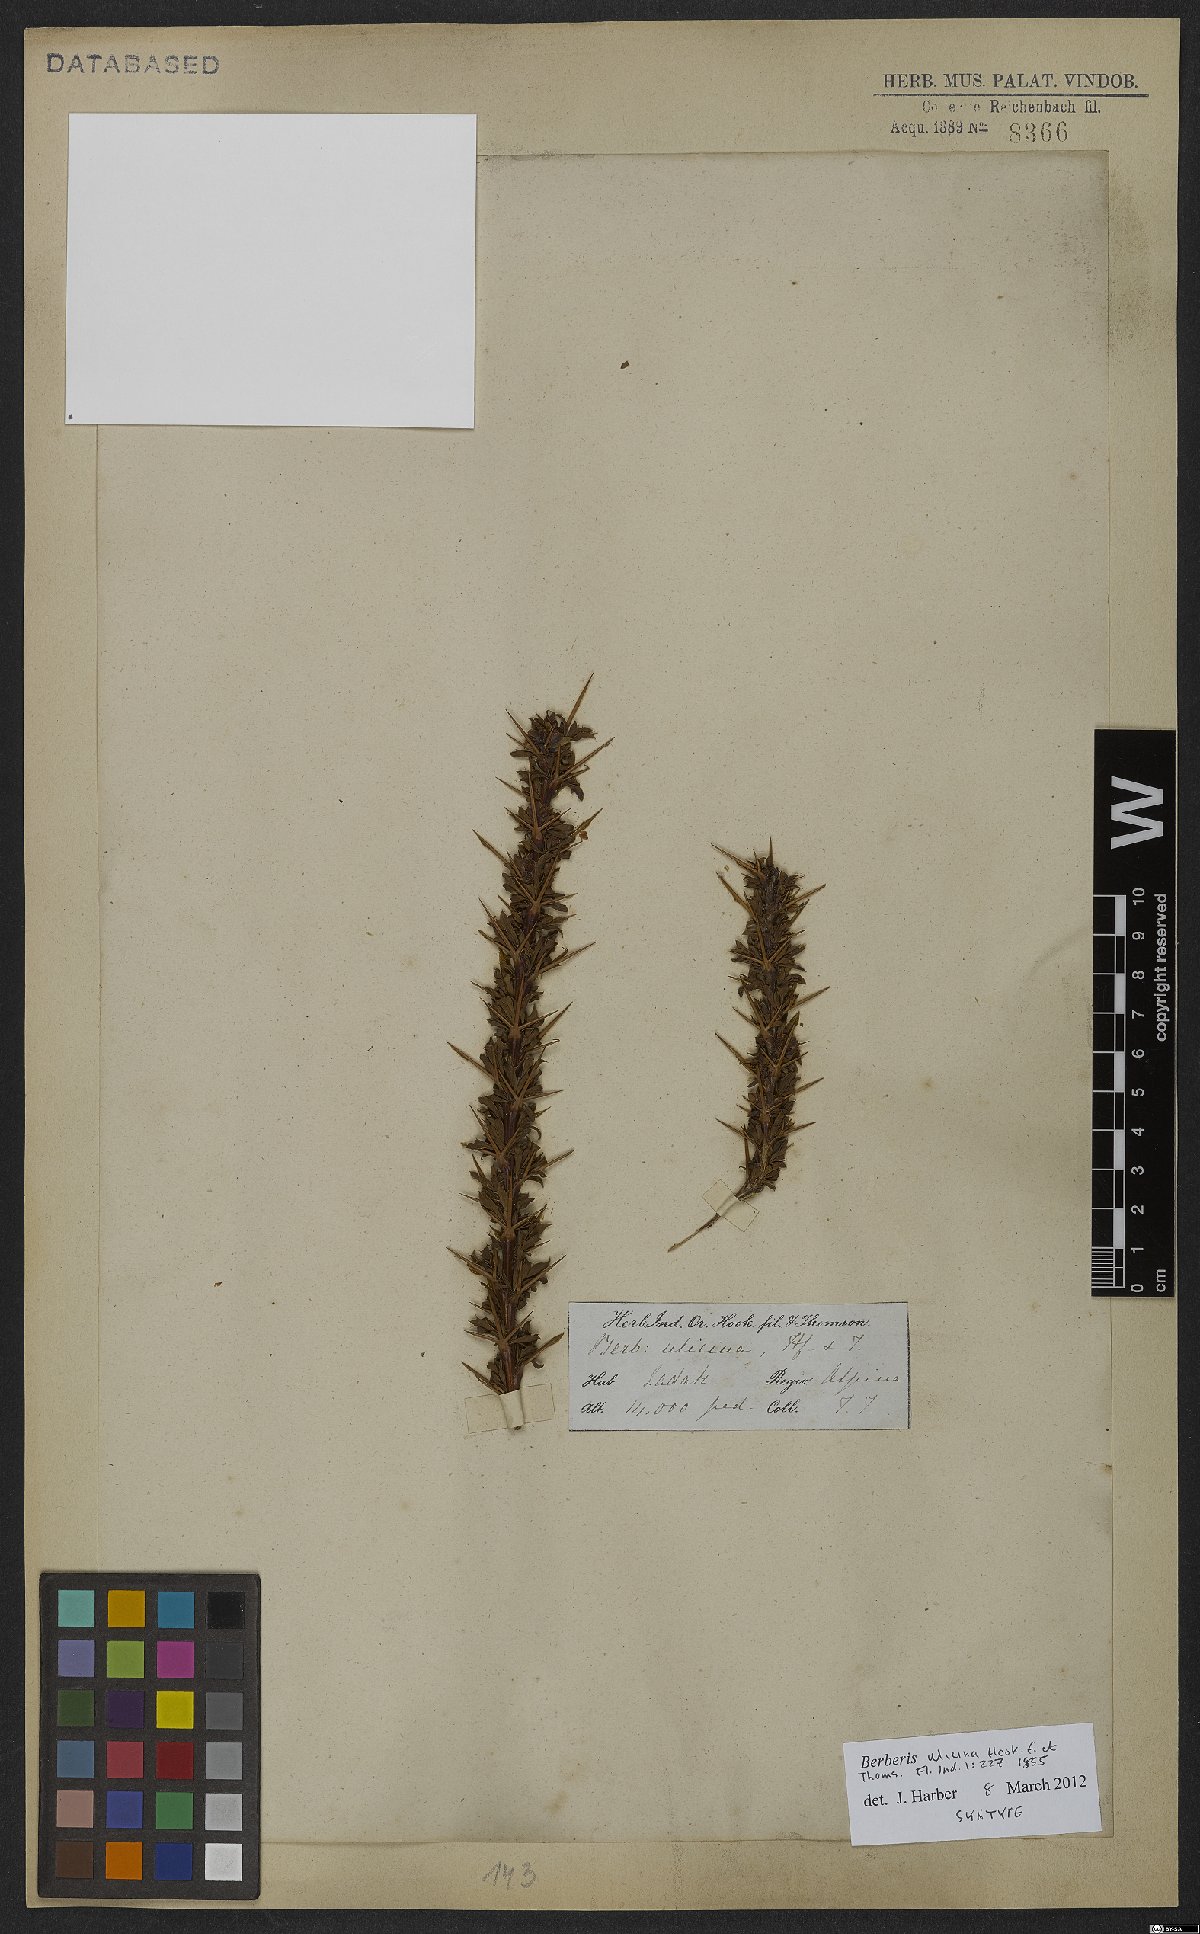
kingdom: Plantae
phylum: Tracheophyta
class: Magnoliopsida
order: Ranunculales
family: Berberidaceae
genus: Berberis
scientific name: Berberis ulicina
